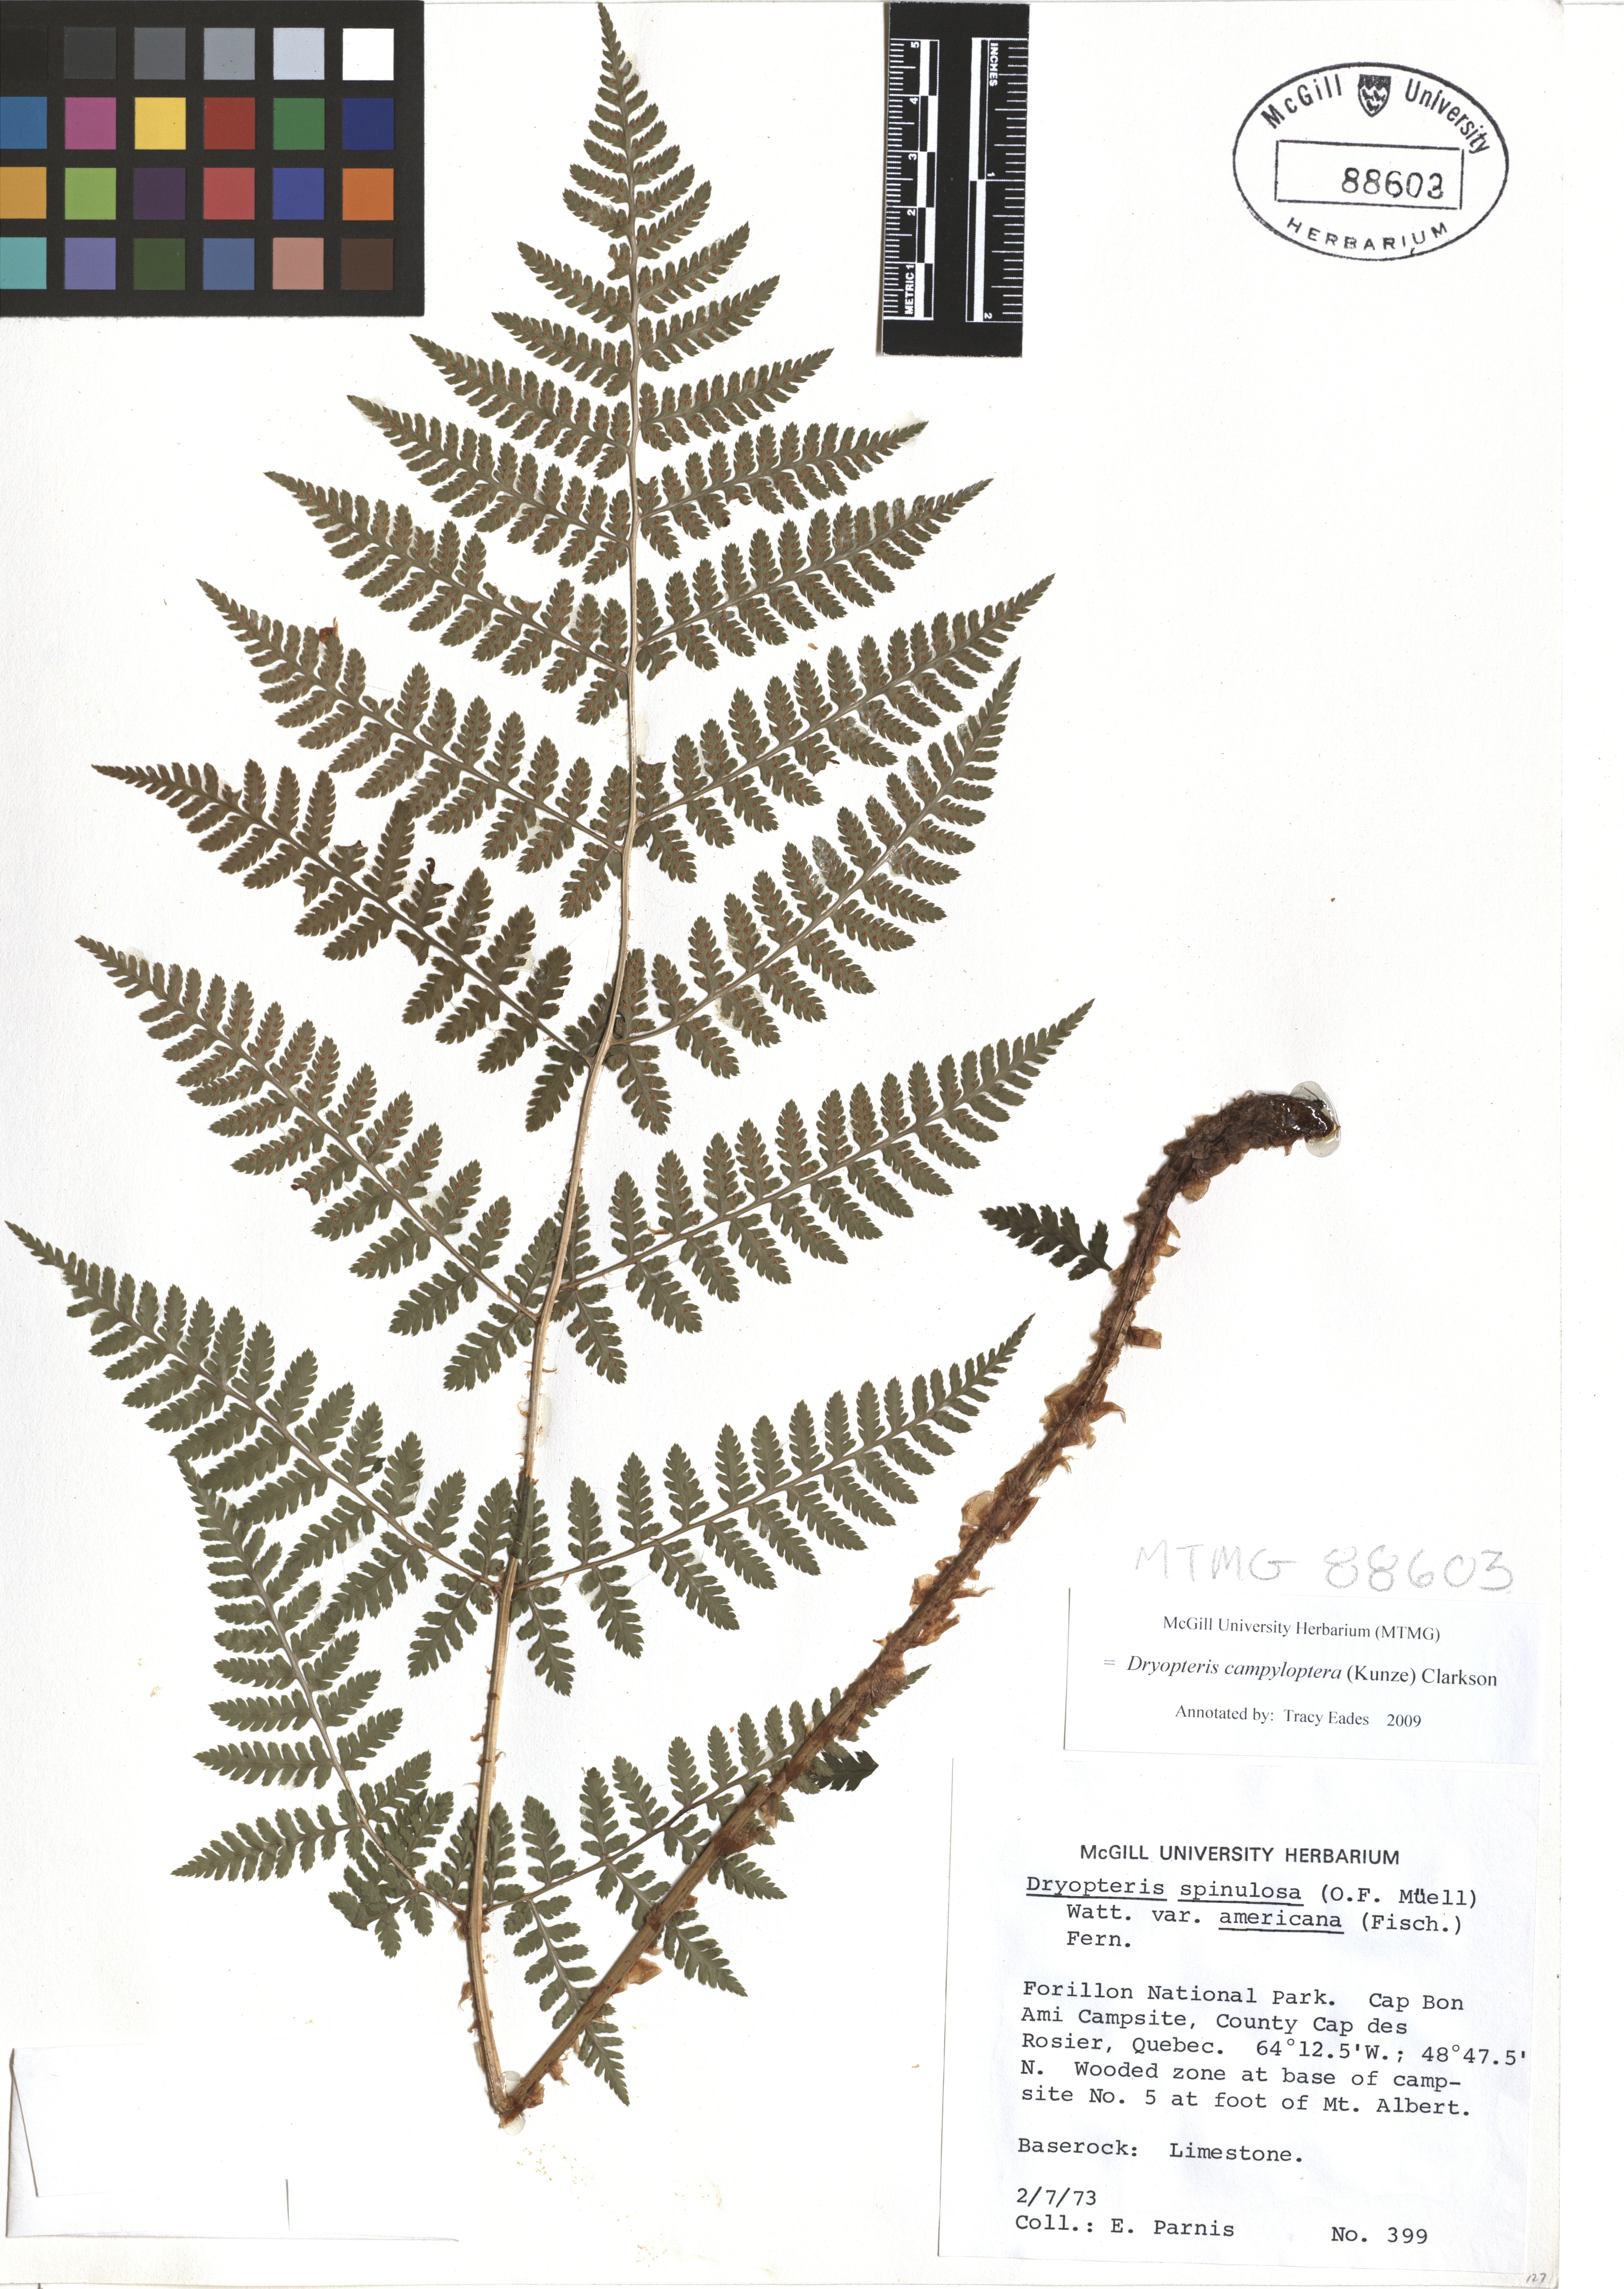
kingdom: Plantae
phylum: Tracheophyta
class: Polypodiopsida
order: Polypodiales
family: Dryopteridaceae
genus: Dryopteris
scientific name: Dryopteris campyloptera
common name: Mountain wood fern
